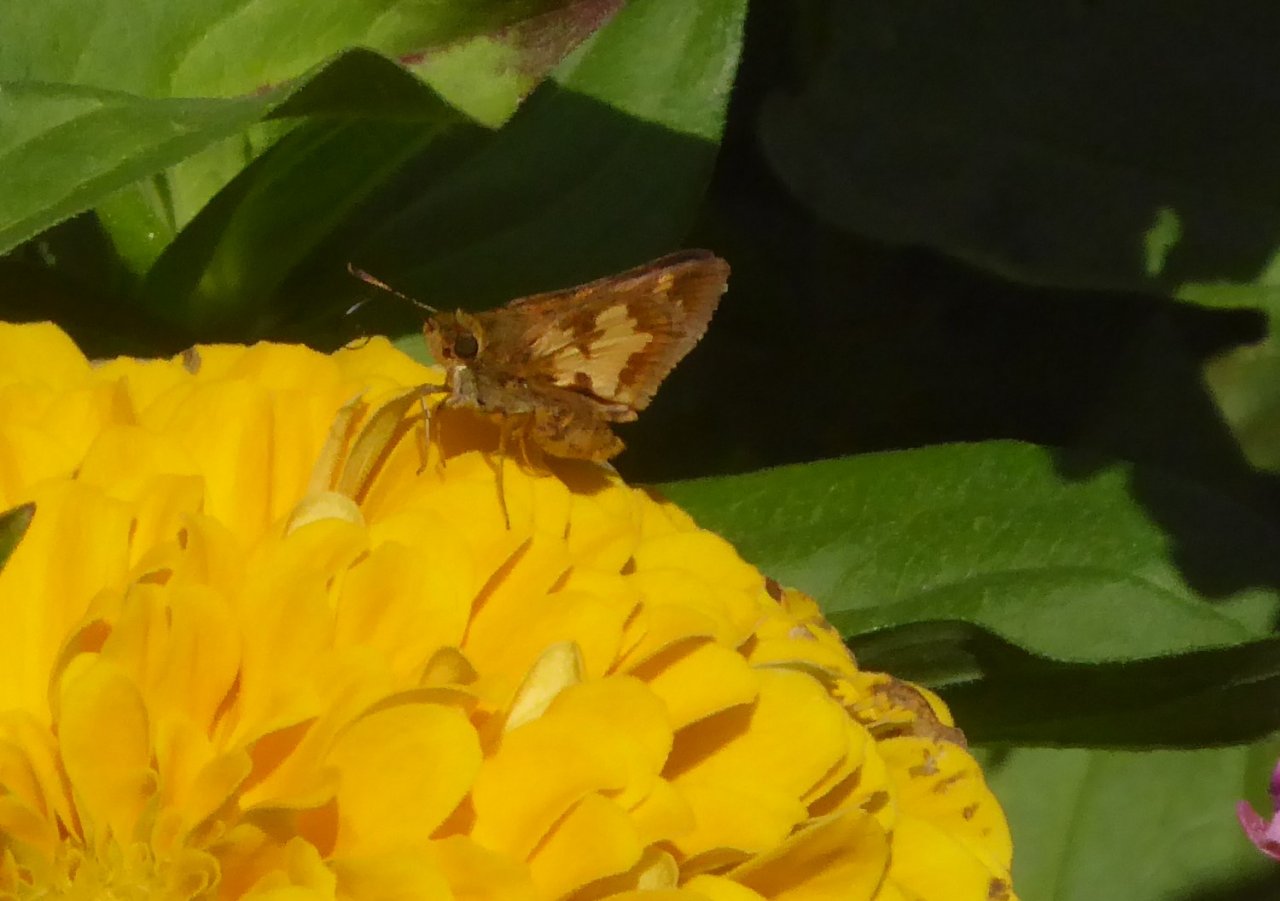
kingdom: Animalia
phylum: Arthropoda
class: Insecta
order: Lepidoptera
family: Hesperiidae
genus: Polites
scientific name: Polites coras
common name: Peck's Skipper
